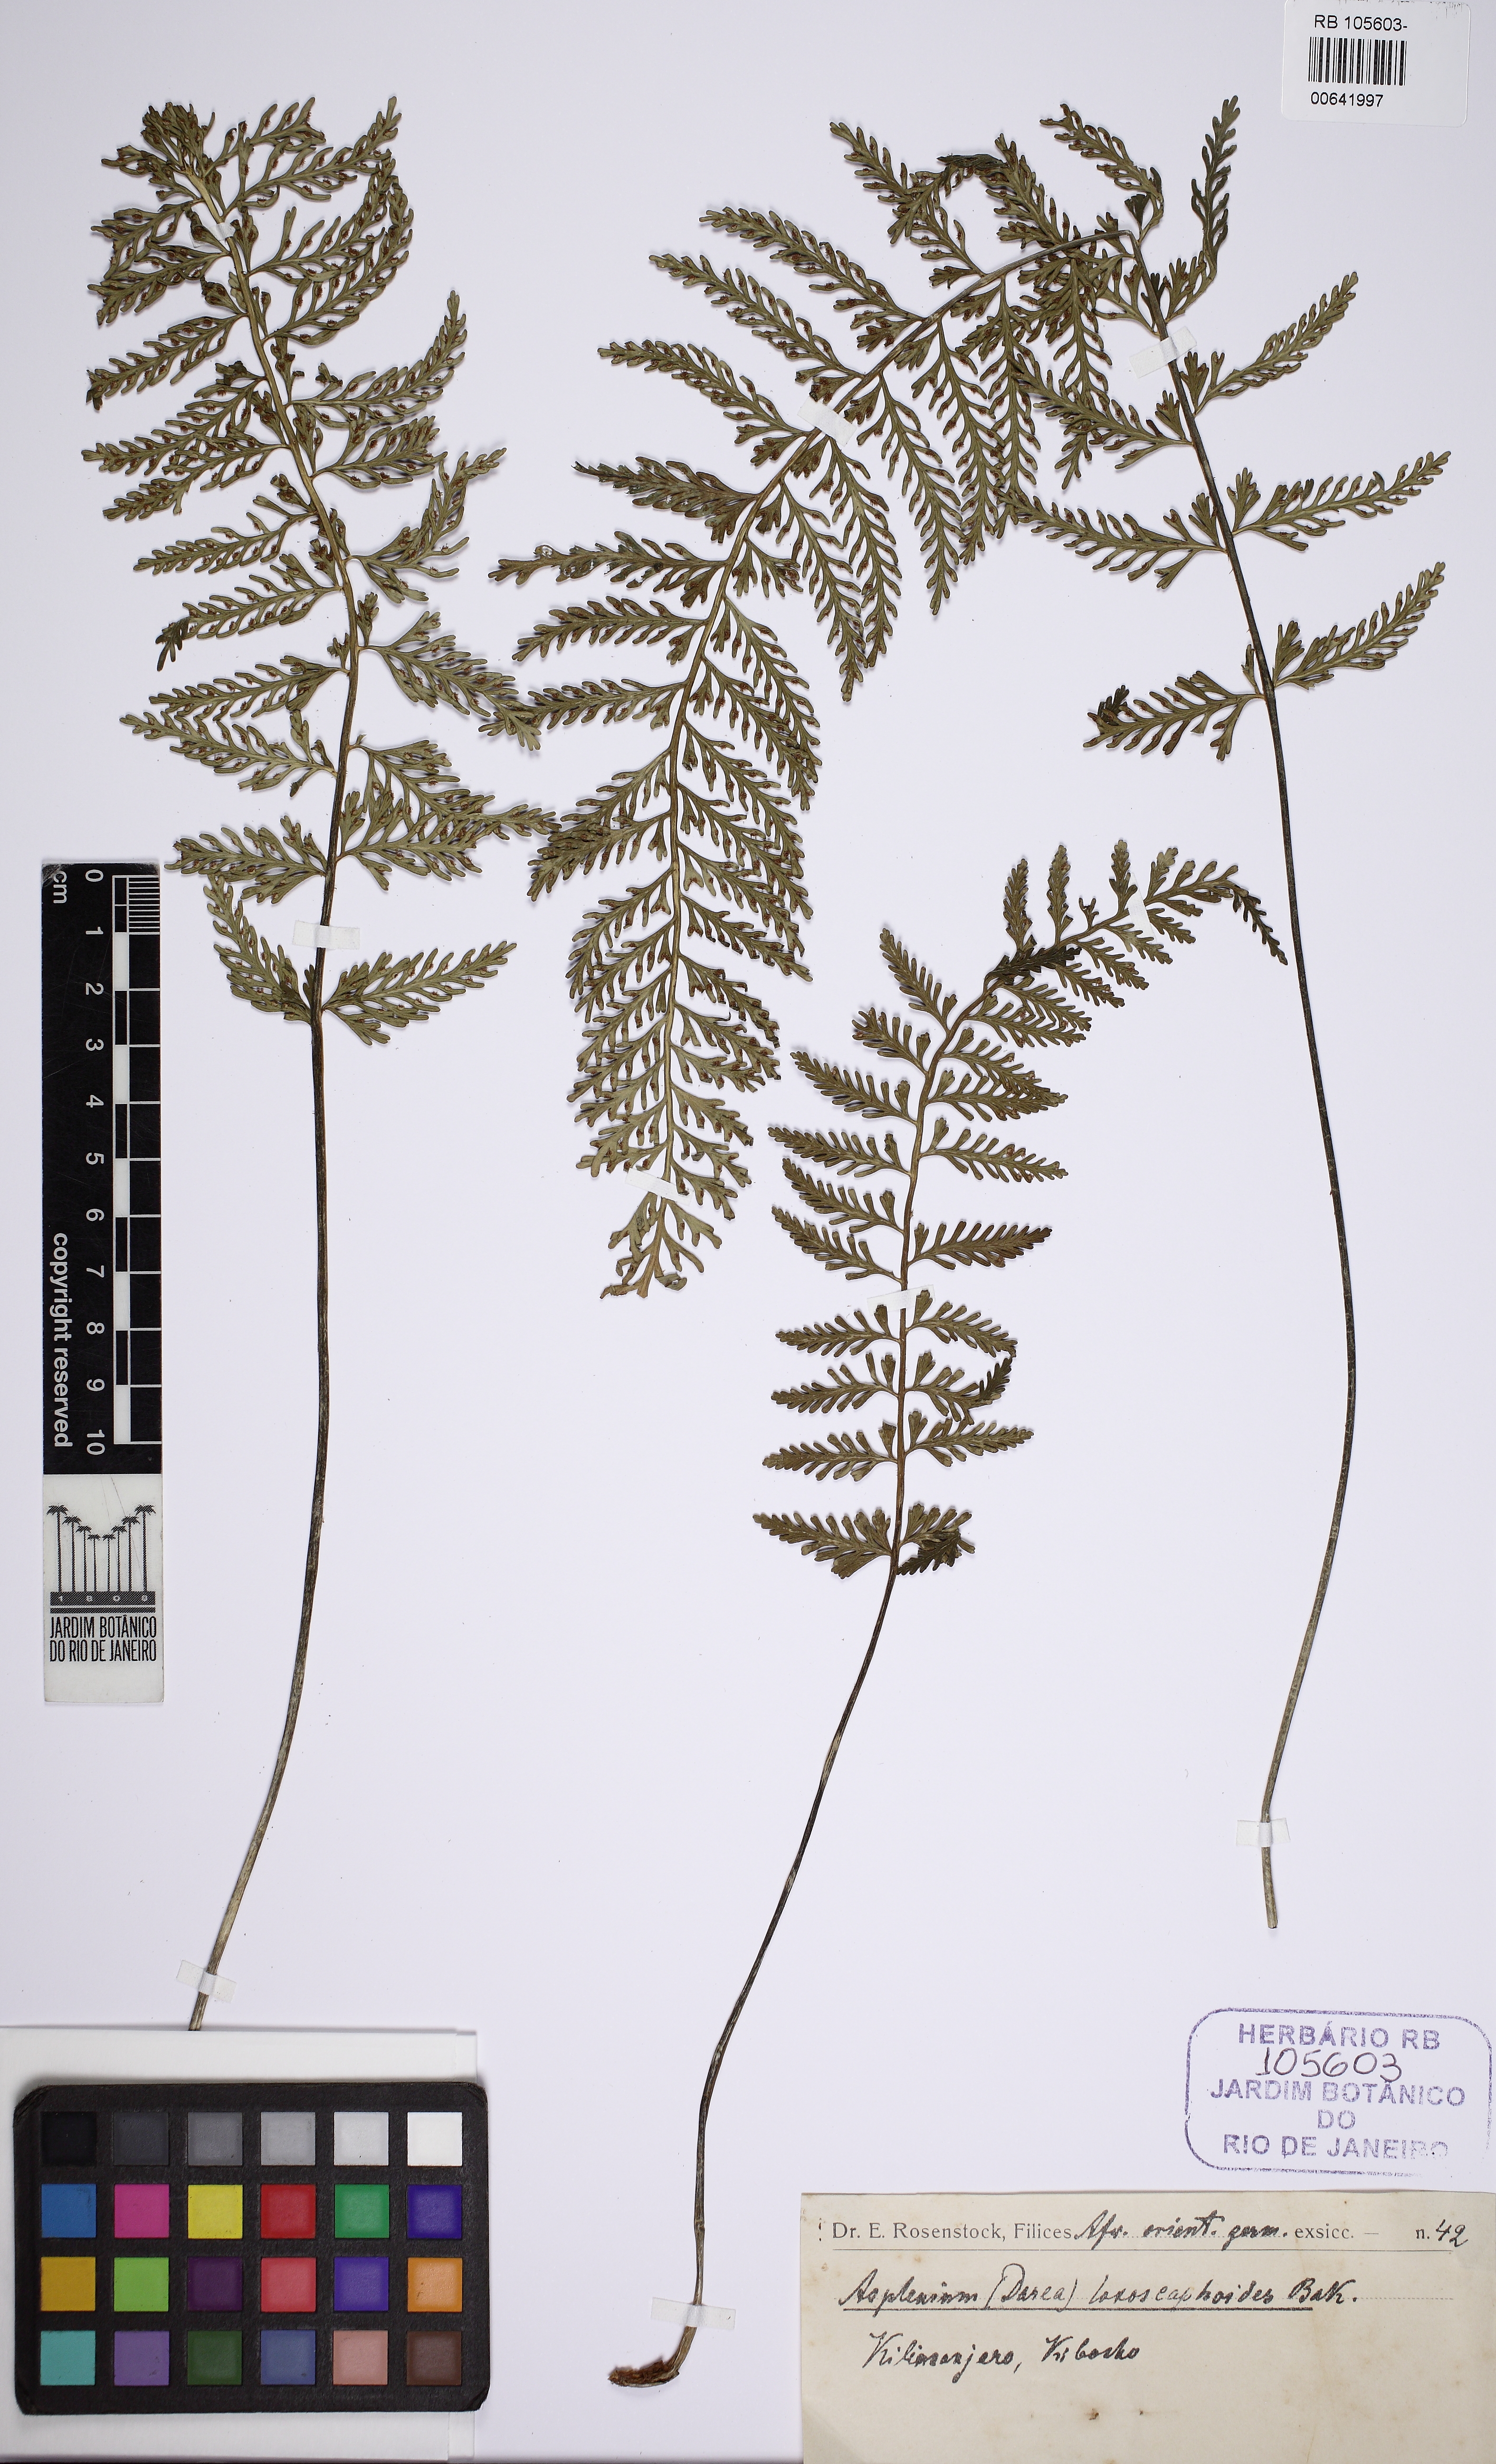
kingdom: Plantae
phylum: Tracheophyta
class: Polypodiopsida
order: Polypodiales
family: Aspleniaceae
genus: Asplenium
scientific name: Asplenium loxoscaphoides
